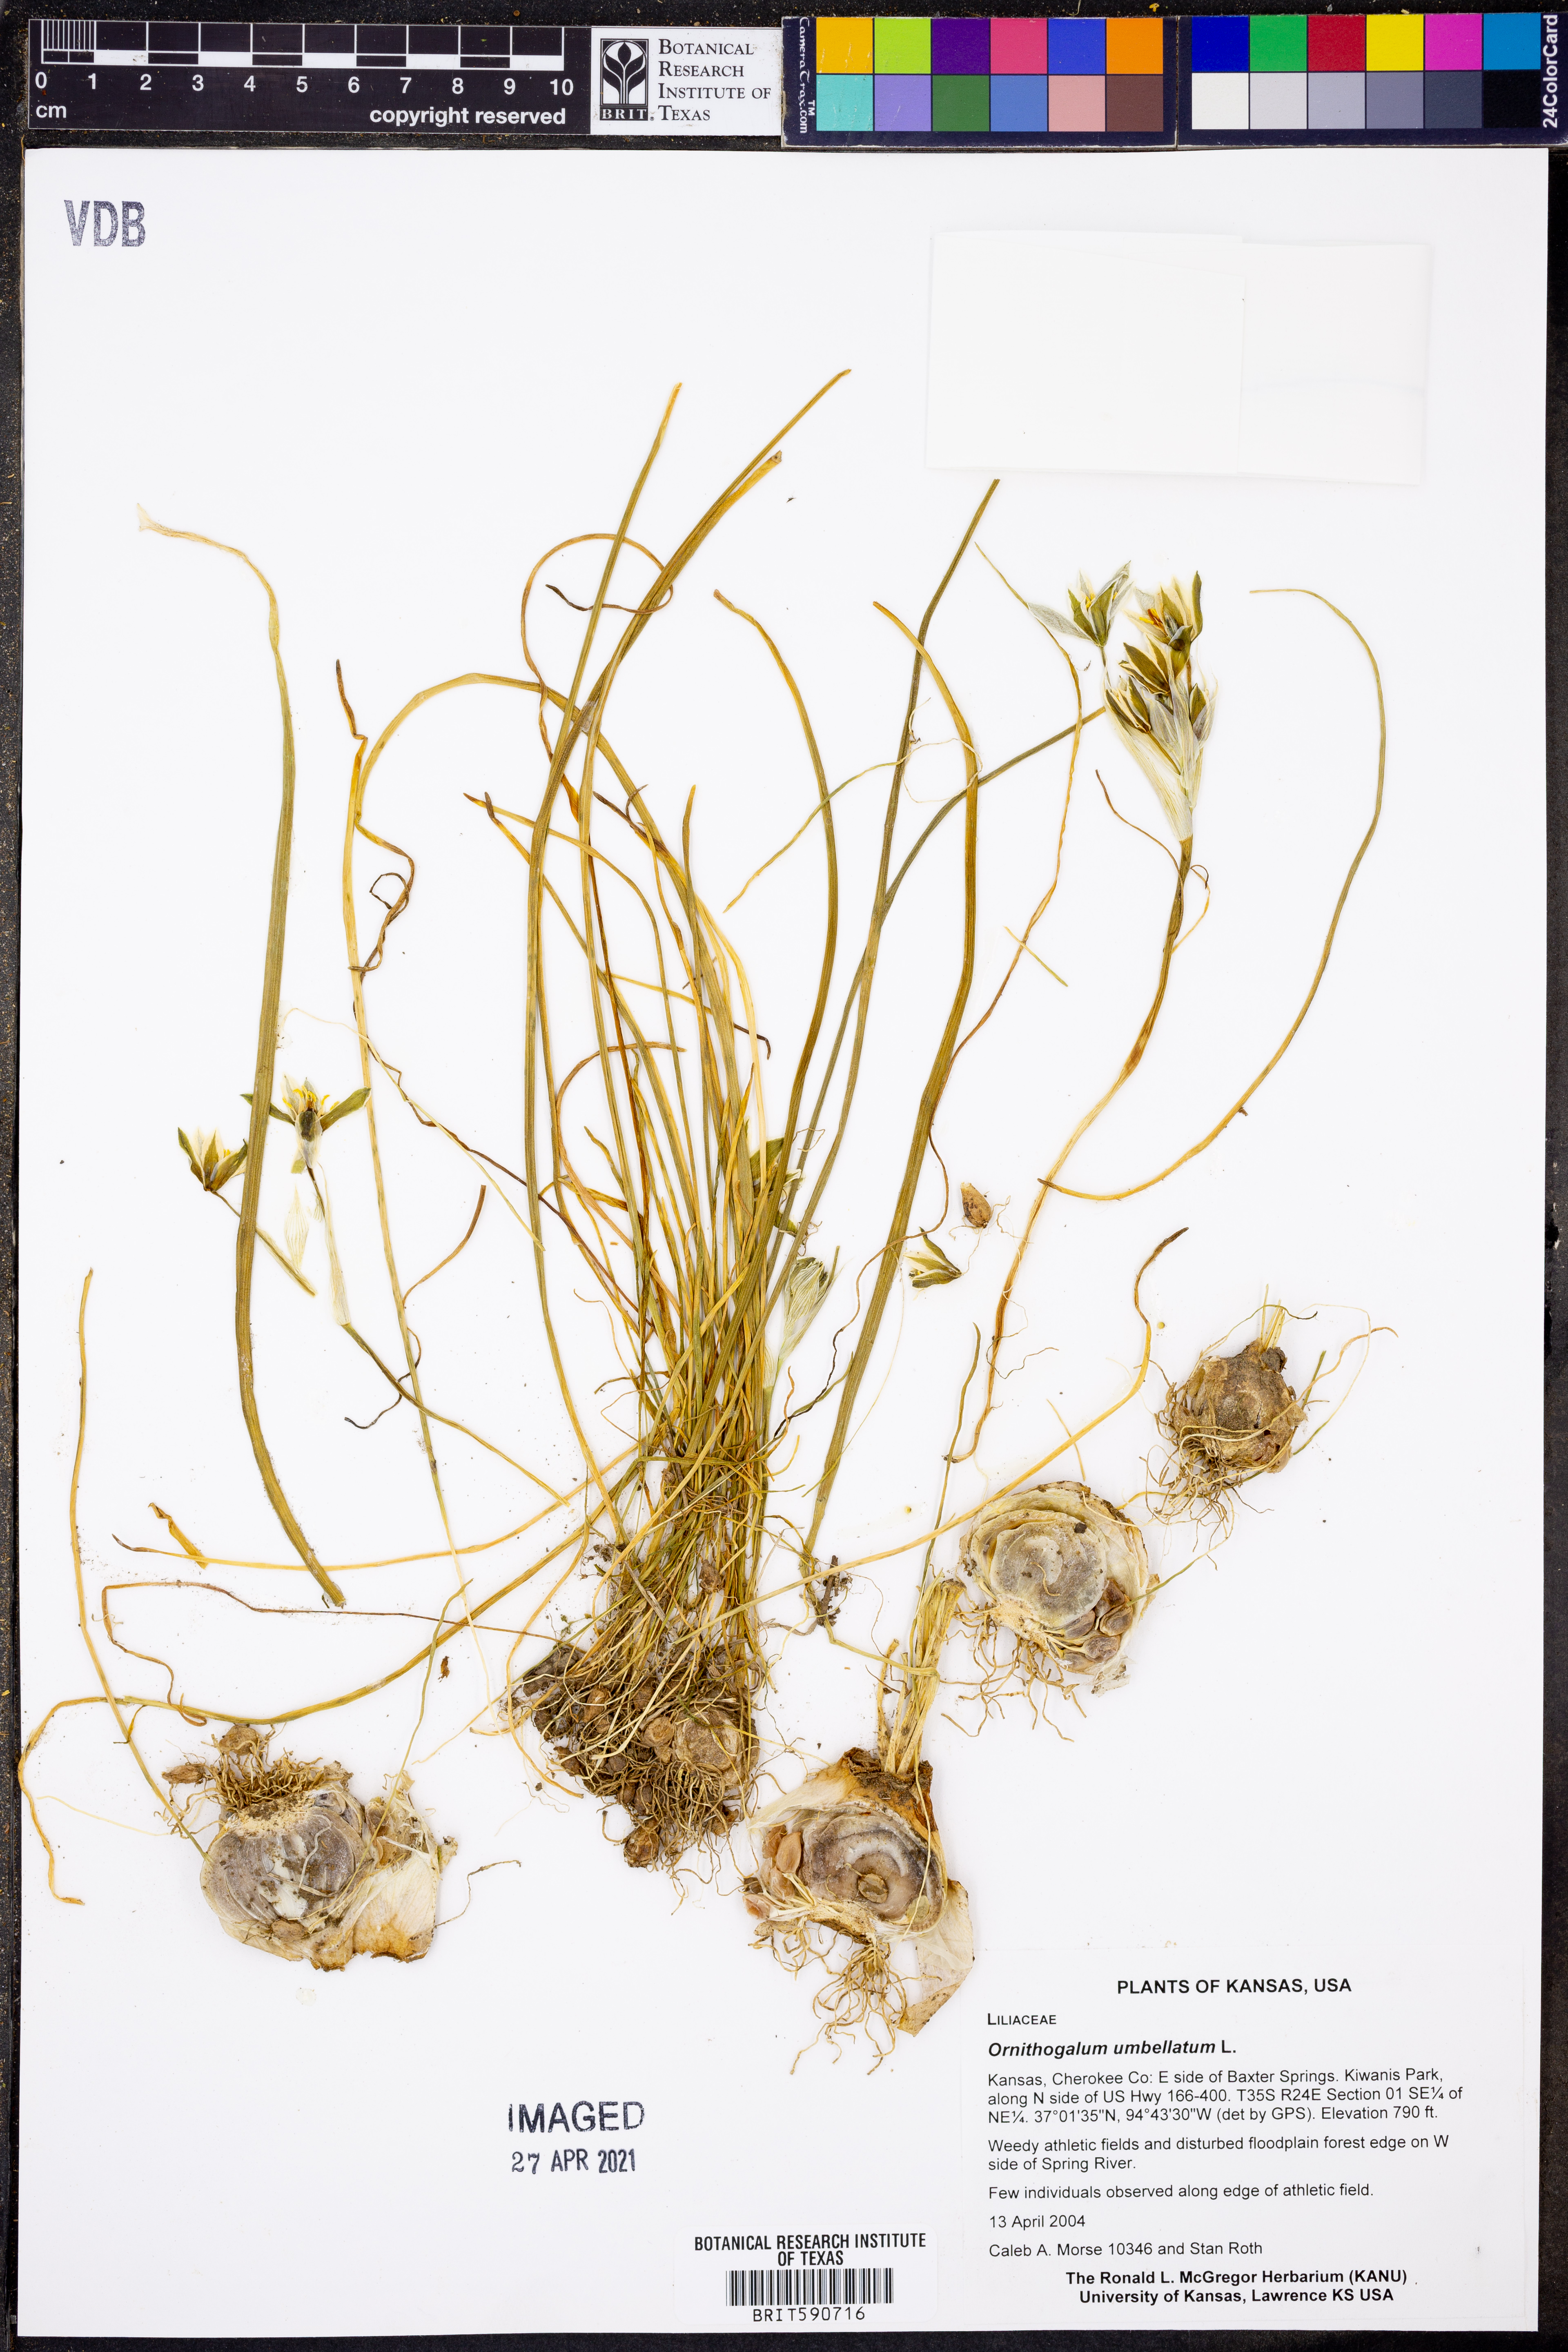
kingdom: Plantae
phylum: Tracheophyta
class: Liliopsida
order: Asparagales
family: Asparagaceae
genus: Ornithogalum
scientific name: Ornithogalum umbellatum
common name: Garden star-of-bethlehem
